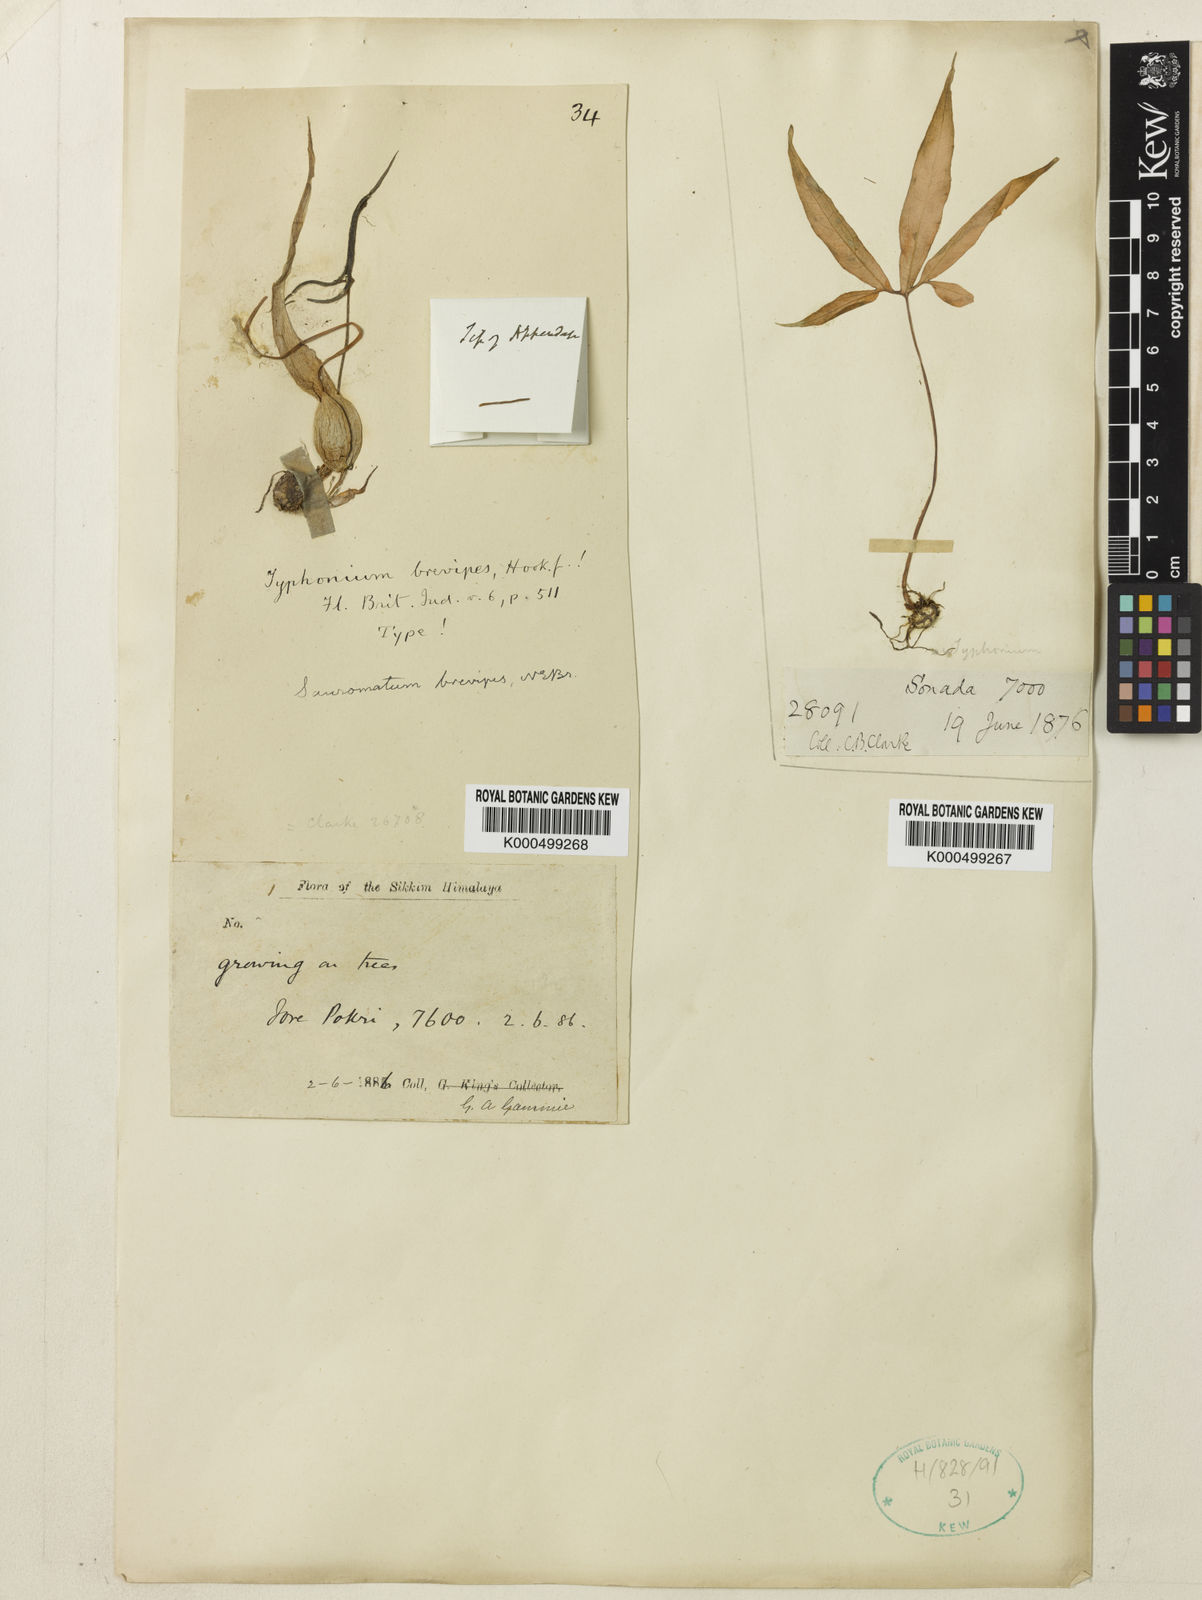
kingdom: Plantae
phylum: Tracheophyta
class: Liliopsida
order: Alismatales
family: Araceae
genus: Typhonium
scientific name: Typhonium
